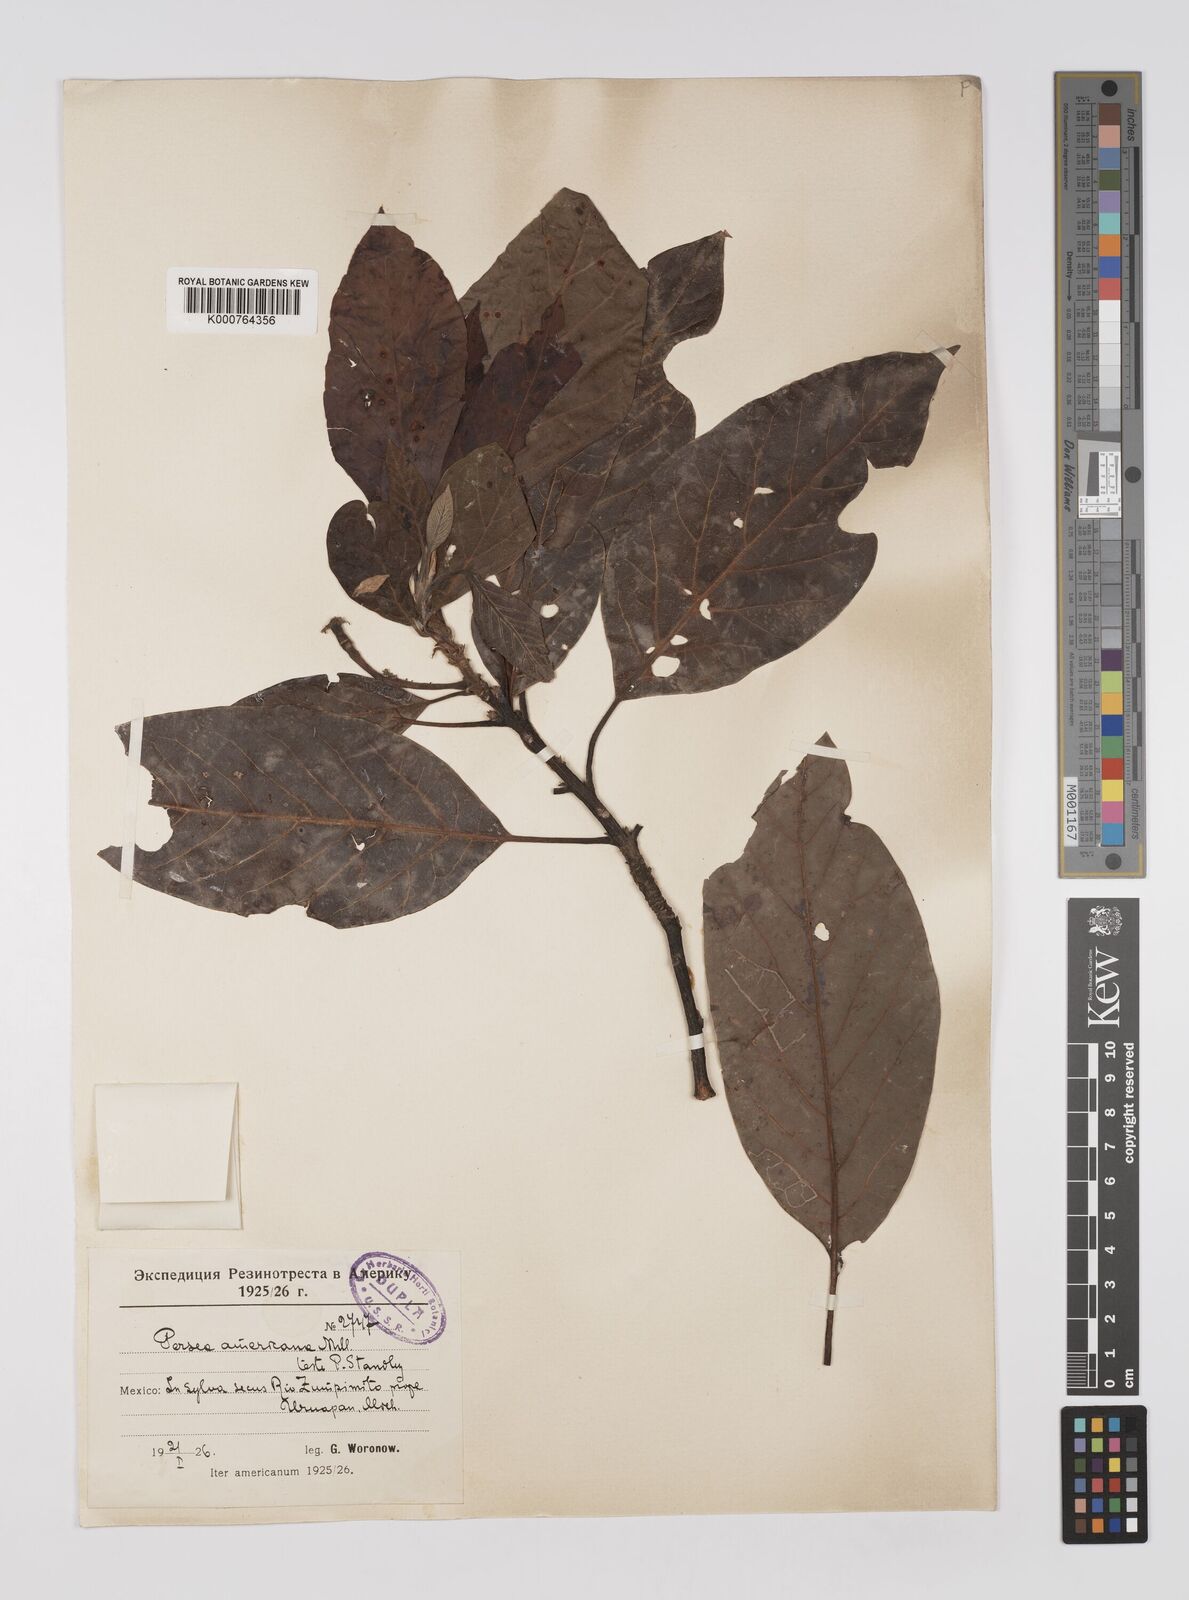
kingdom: Plantae
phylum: Tracheophyta
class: Magnoliopsida
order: Laurales
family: Lauraceae
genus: Persea
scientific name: Persea americana
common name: Avocado
